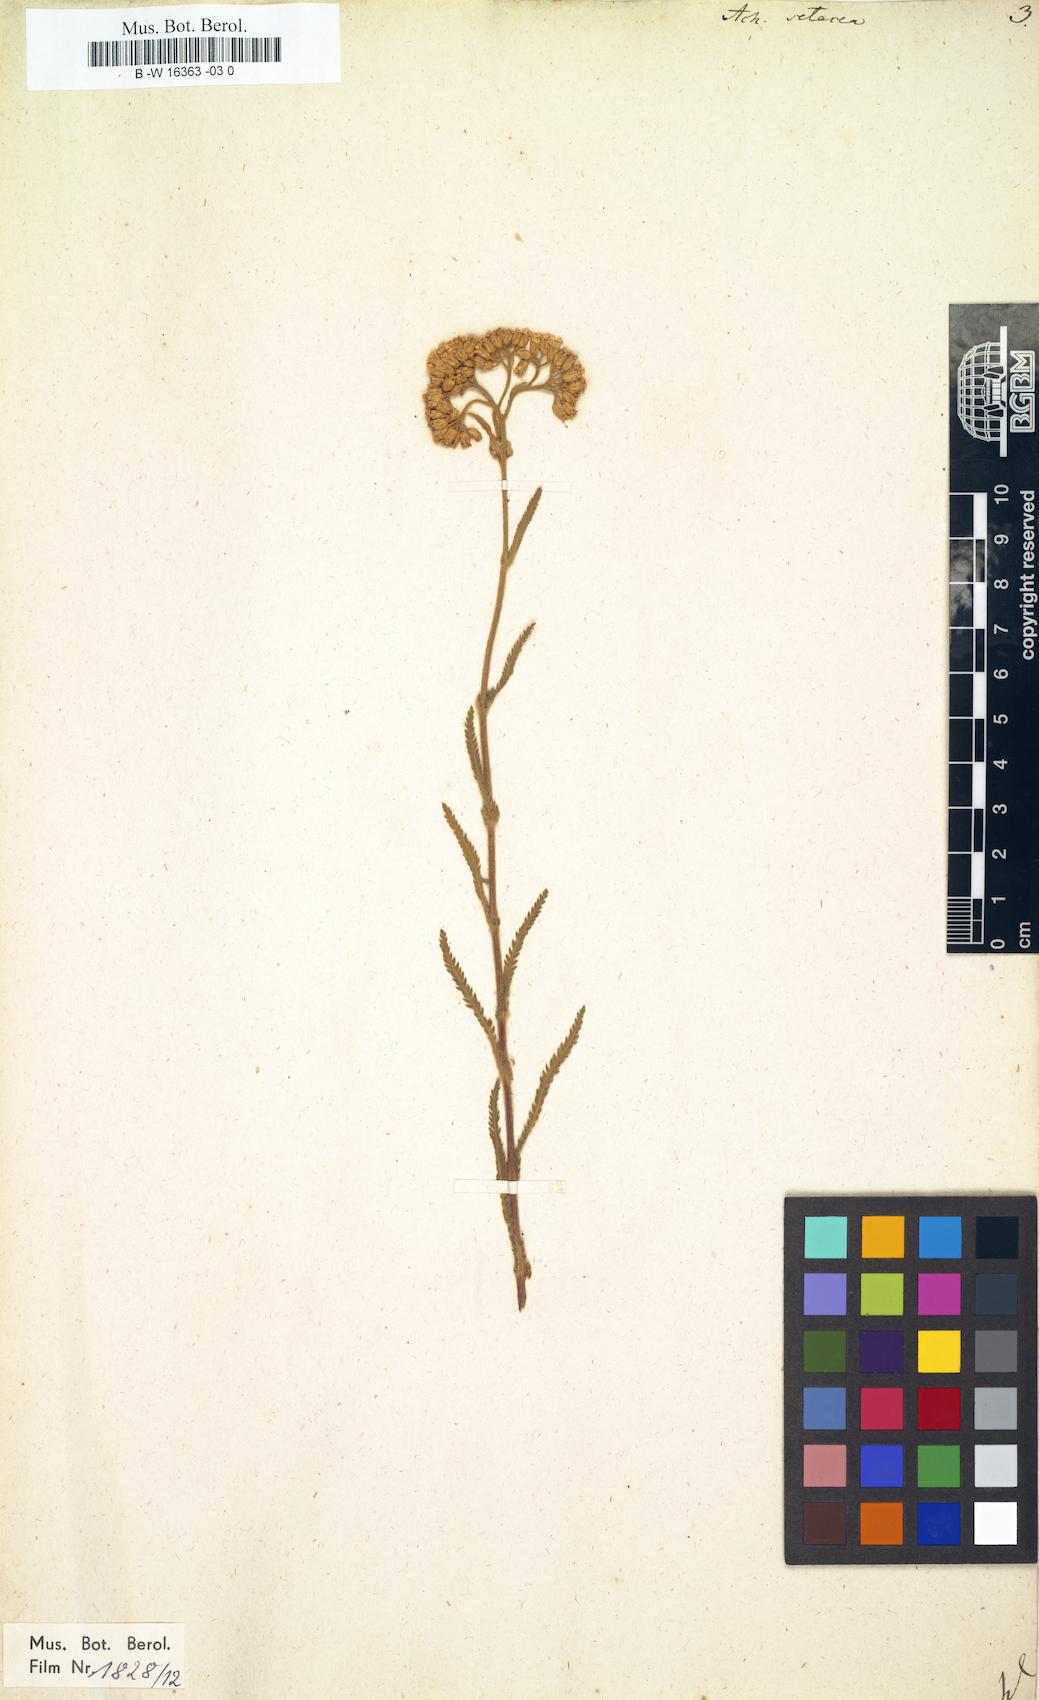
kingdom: Plantae
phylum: Tracheophyta
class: Magnoliopsida
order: Asterales
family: Asteraceae
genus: Achillea
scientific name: Achillea setacea
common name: Bristly yarrow
